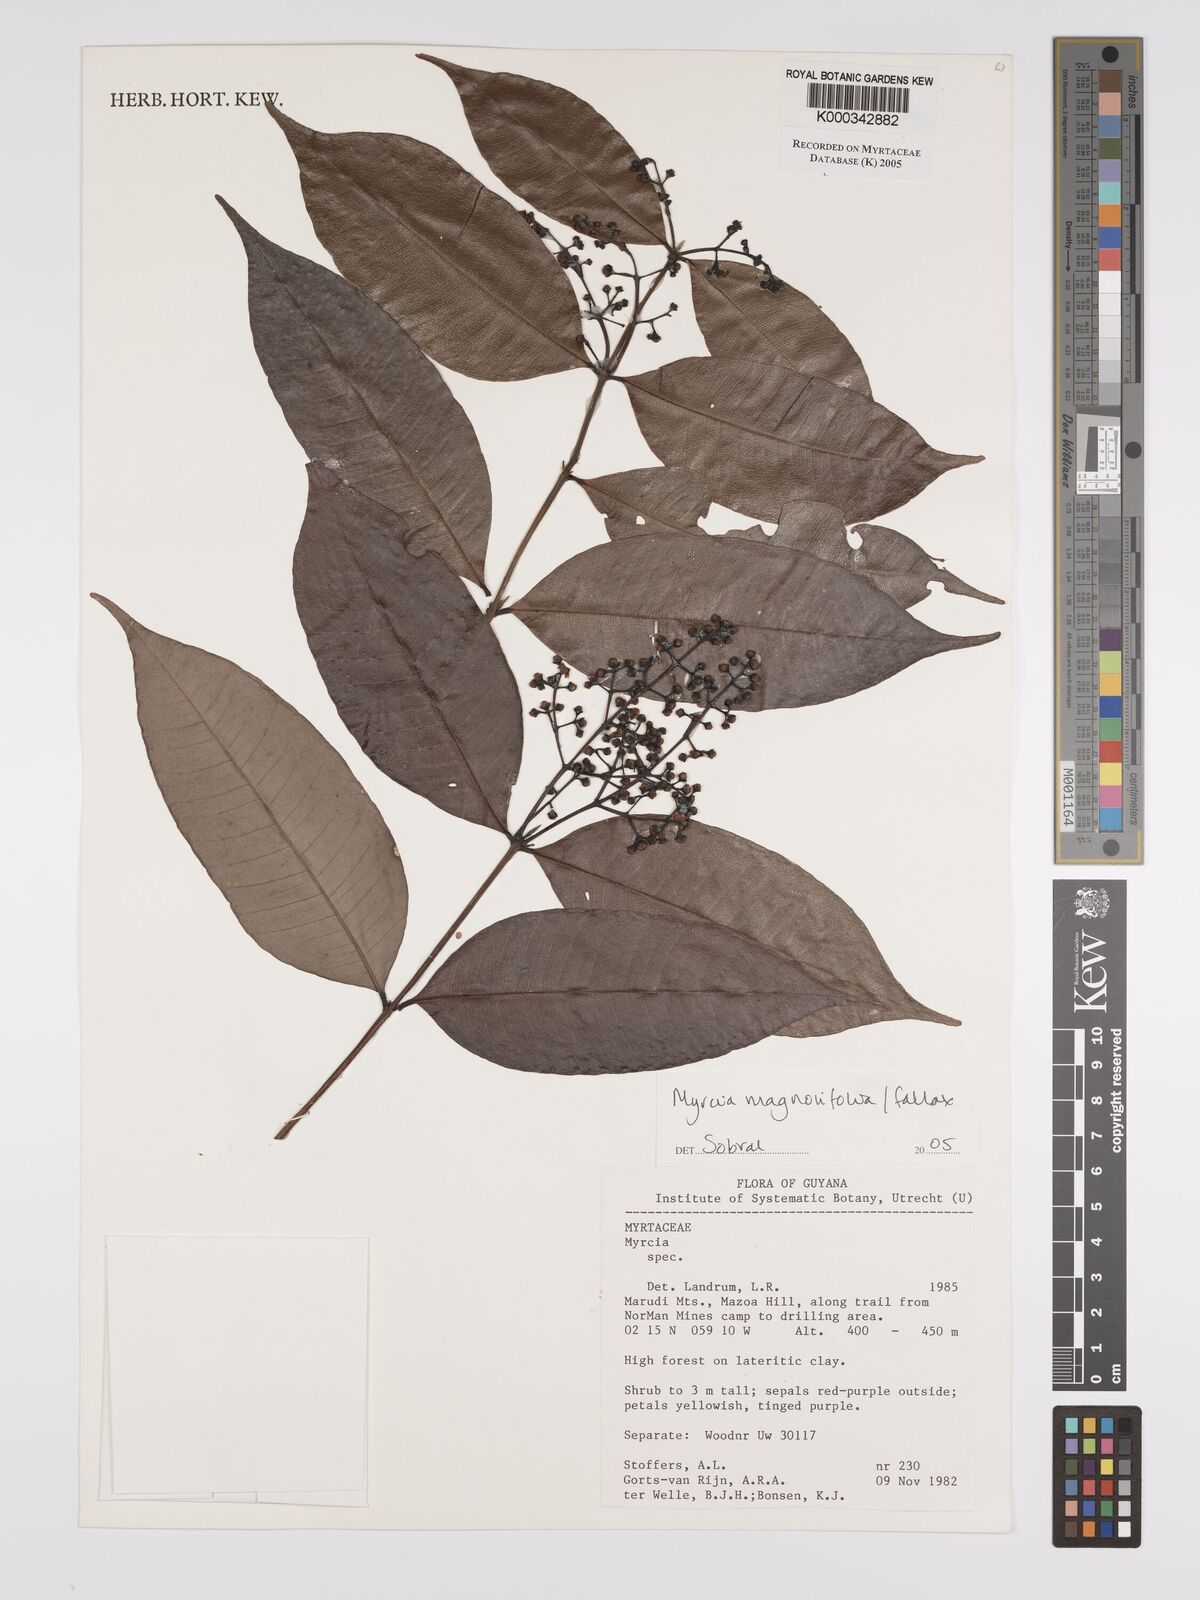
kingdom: Plantae
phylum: Tracheophyta
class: Magnoliopsida
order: Myrtales
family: Myrtaceae
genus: Myrcia
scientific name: Myrcia splendens
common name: Surinam cherry
